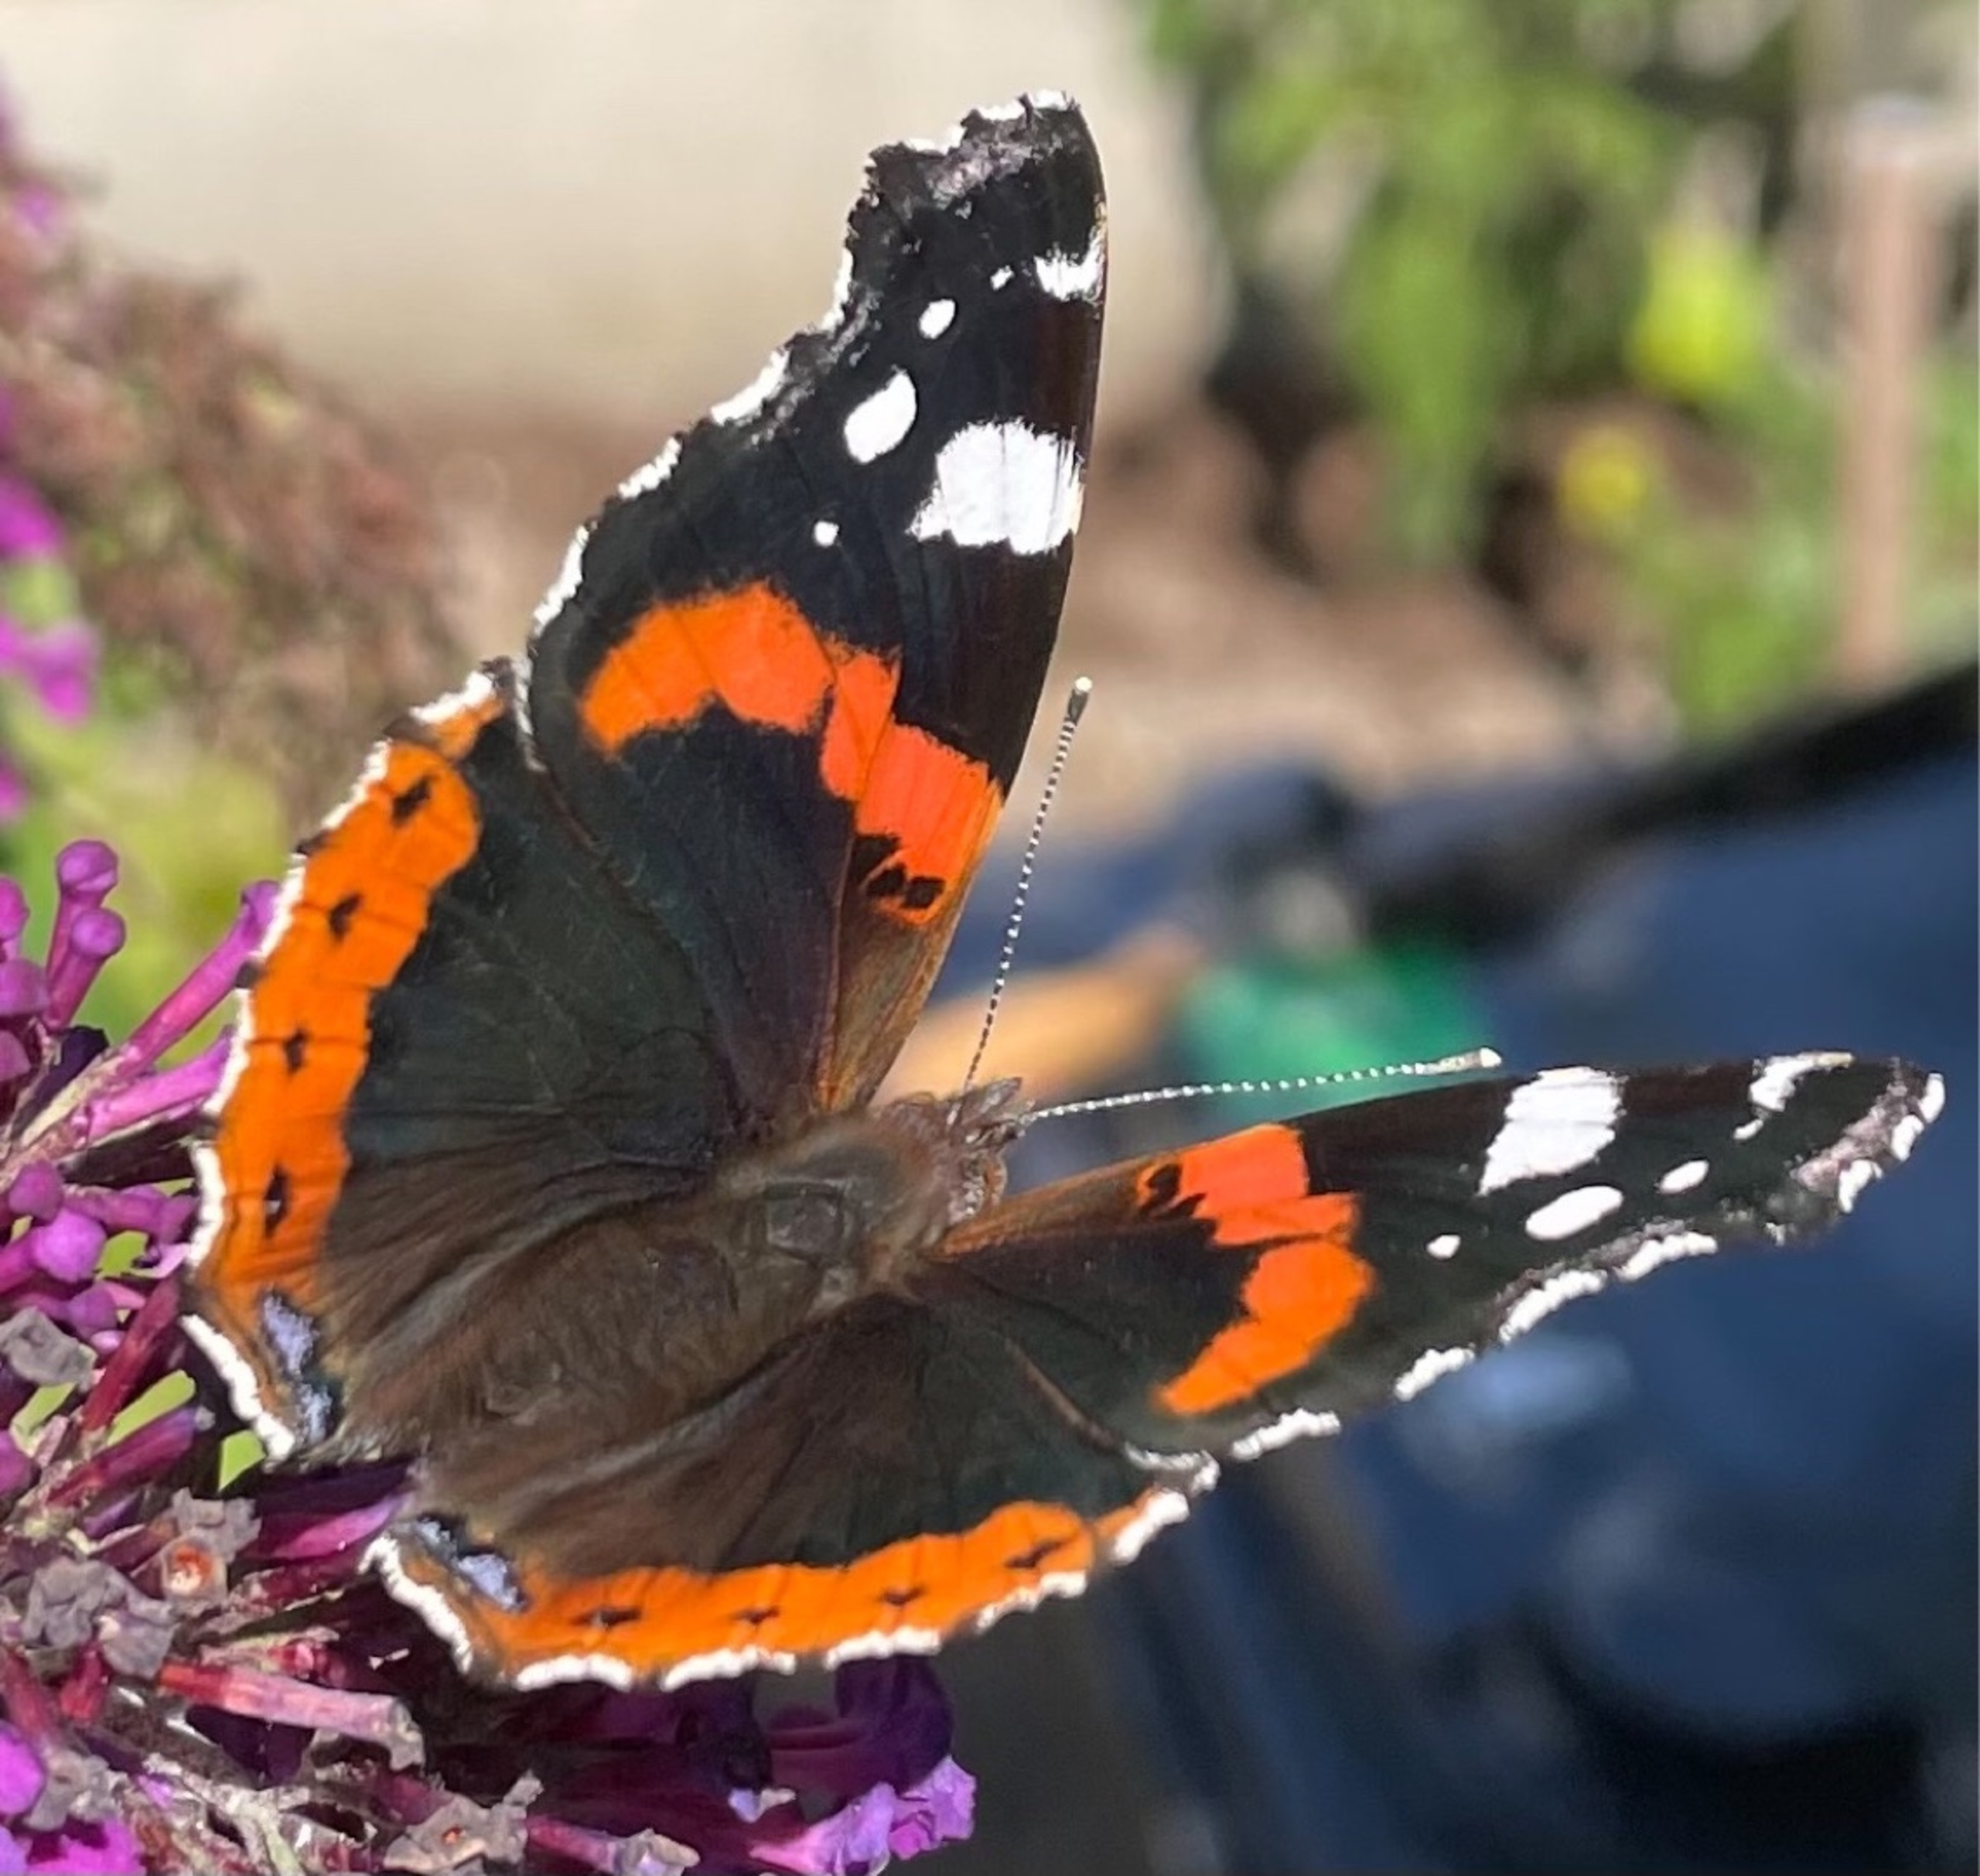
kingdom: Animalia
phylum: Arthropoda
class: Insecta
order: Lepidoptera
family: Nymphalidae
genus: Vanessa
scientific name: Vanessa atalanta
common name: Admiral
